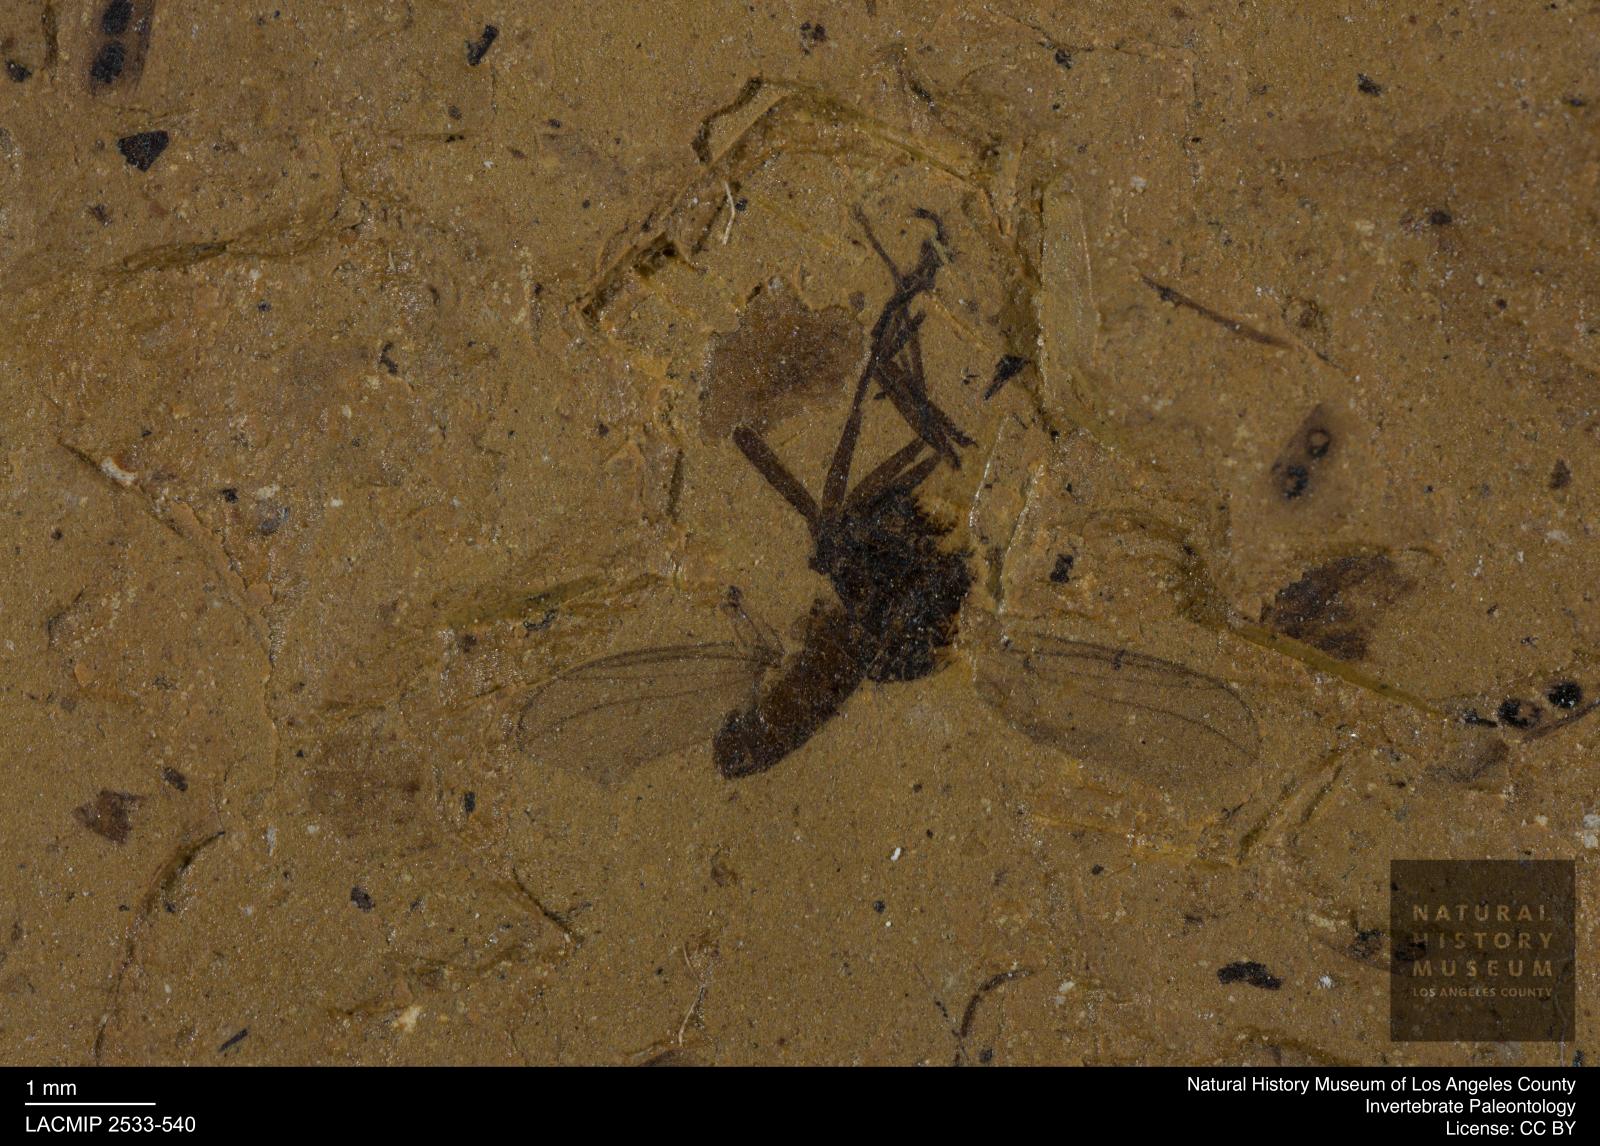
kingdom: Animalia
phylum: Arthropoda
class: Insecta
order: Diptera
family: Opetiidae
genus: Opetia
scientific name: Opetia atra
